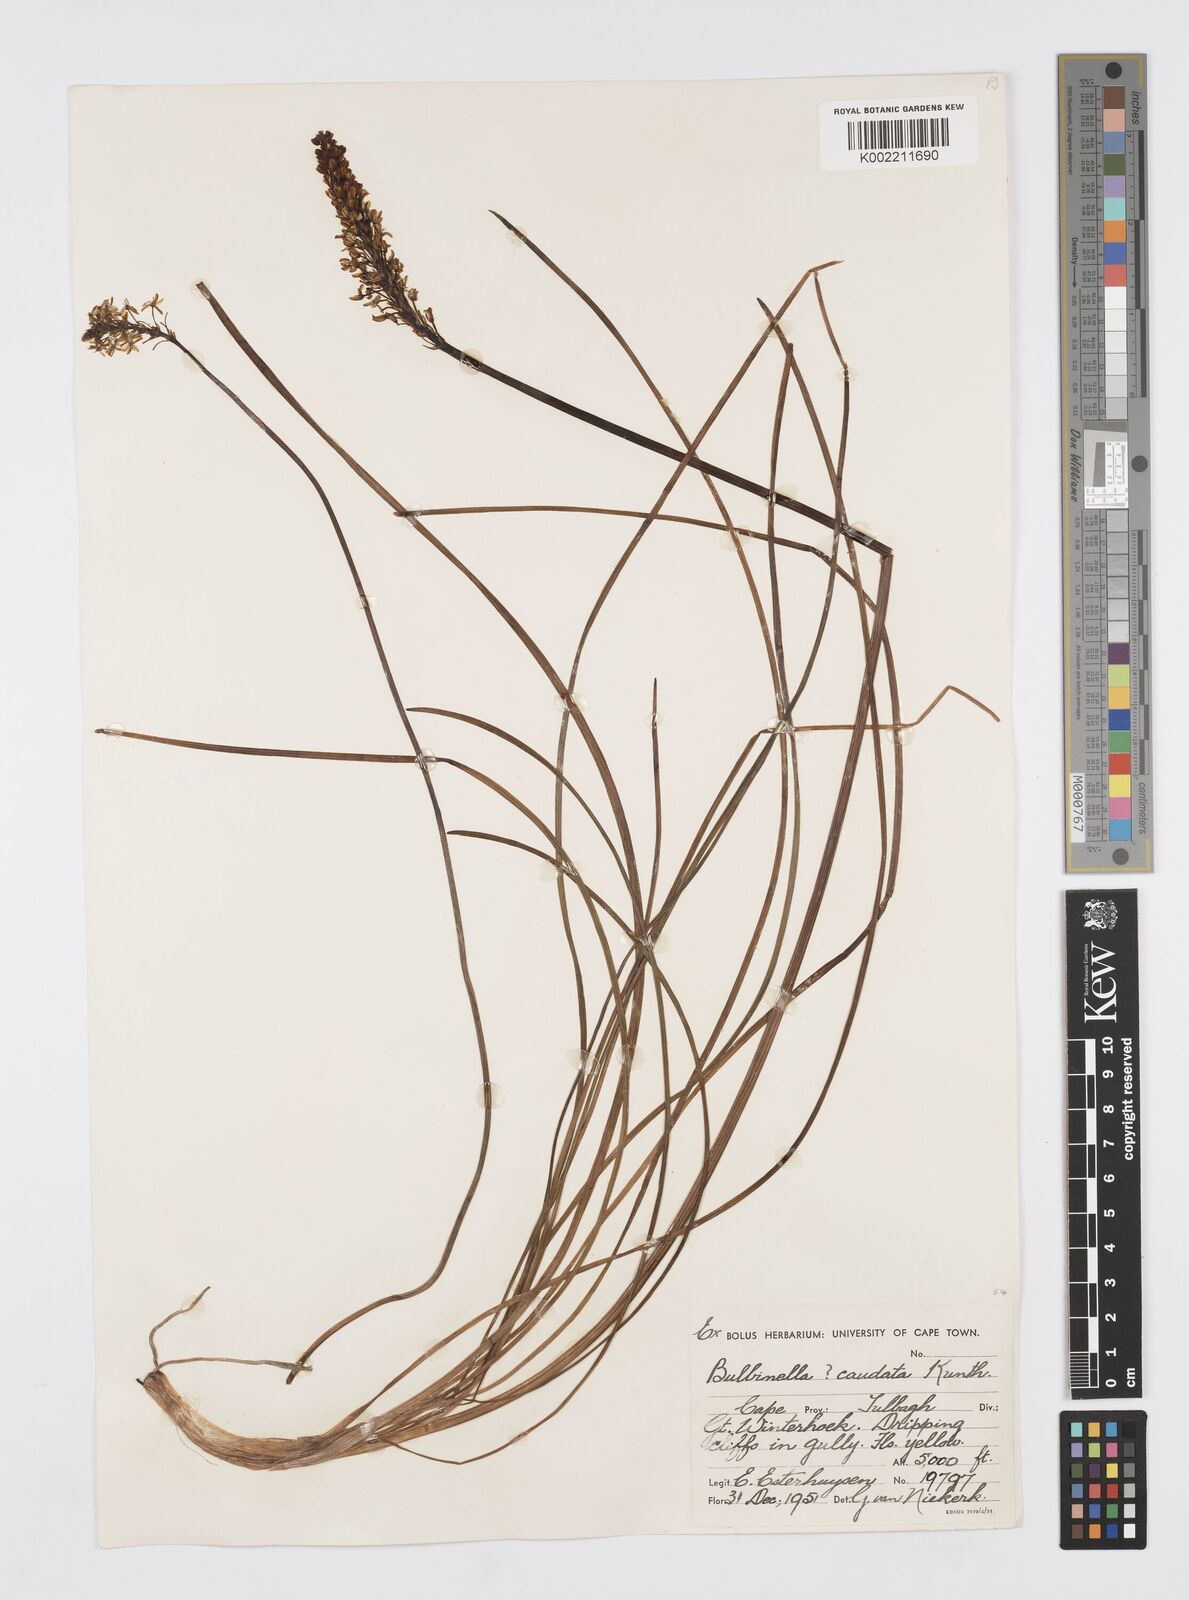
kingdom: Plantae
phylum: Tracheophyta
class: Liliopsida
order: Asparagales
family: Asphodelaceae
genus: Bulbinella
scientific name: Bulbinella cauda-felis
